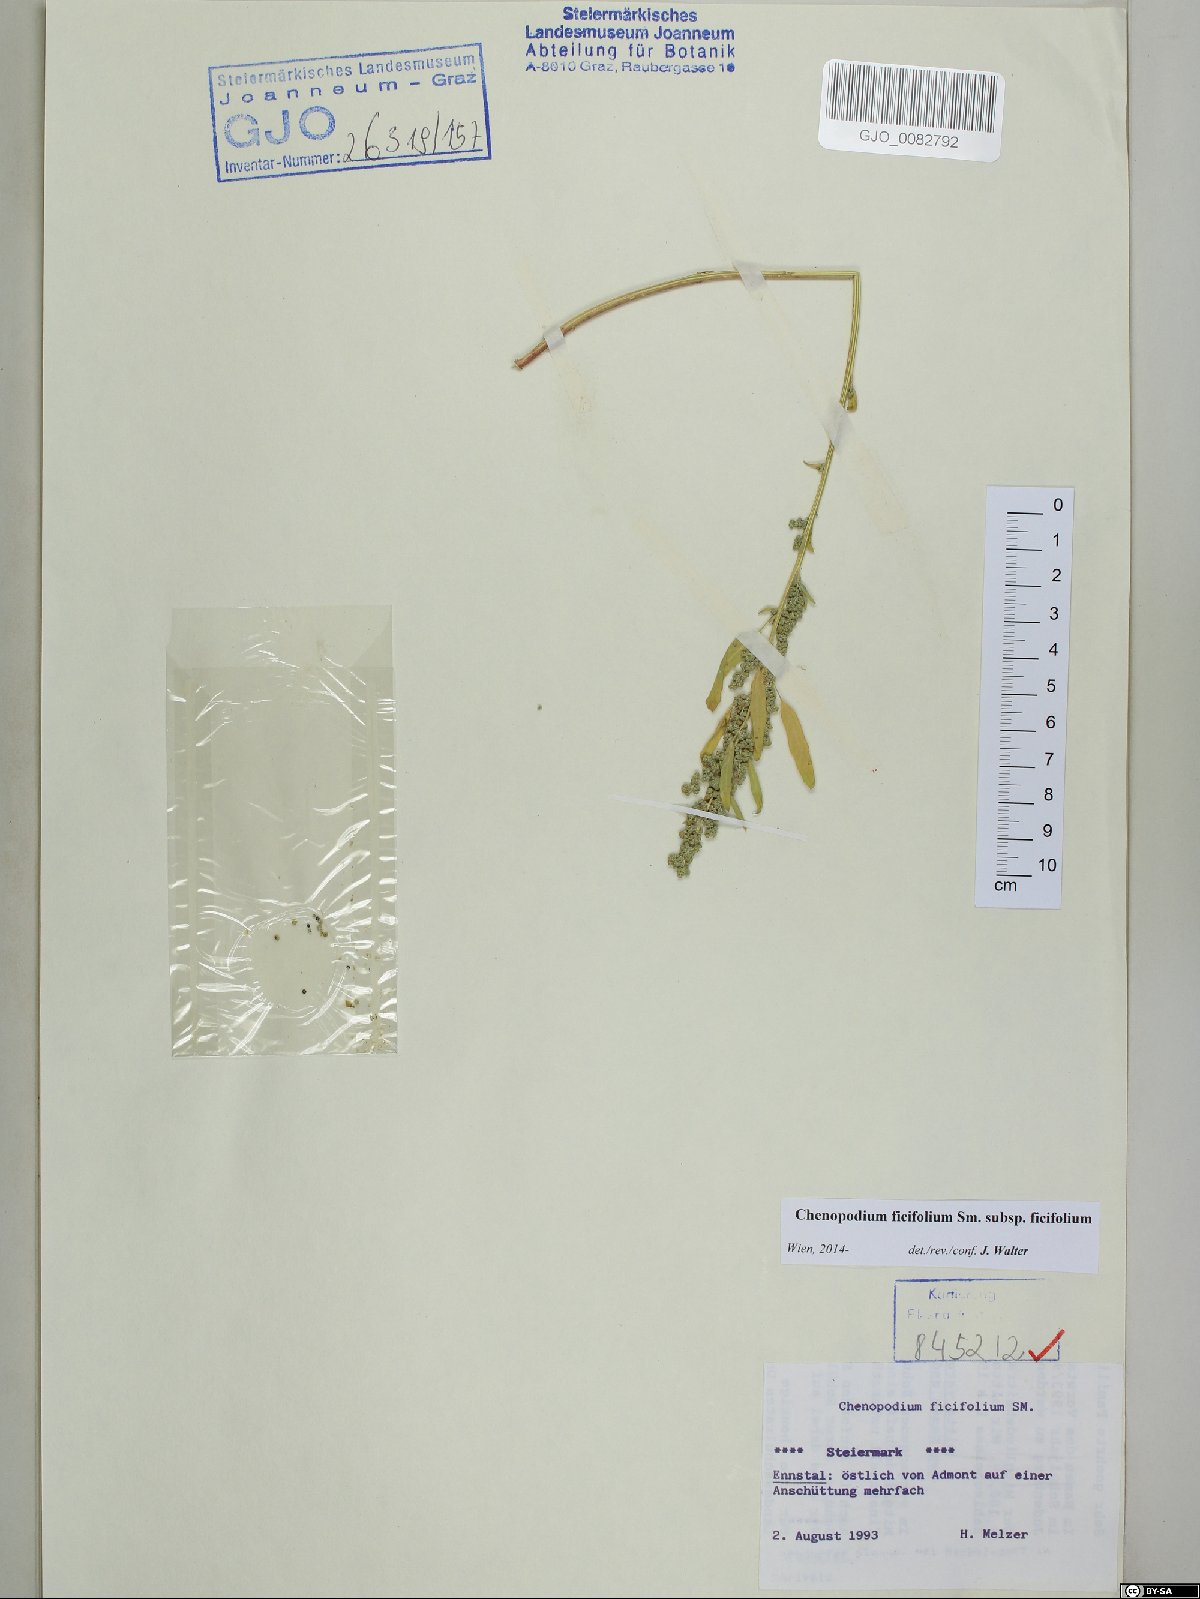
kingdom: Plantae
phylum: Tracheophyta
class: Magnoliopsida
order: Caryophyllales
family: Amaranthaceae
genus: Chenopodium
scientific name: Chenopodium ficifolium
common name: Fig-leaved goosefoot
